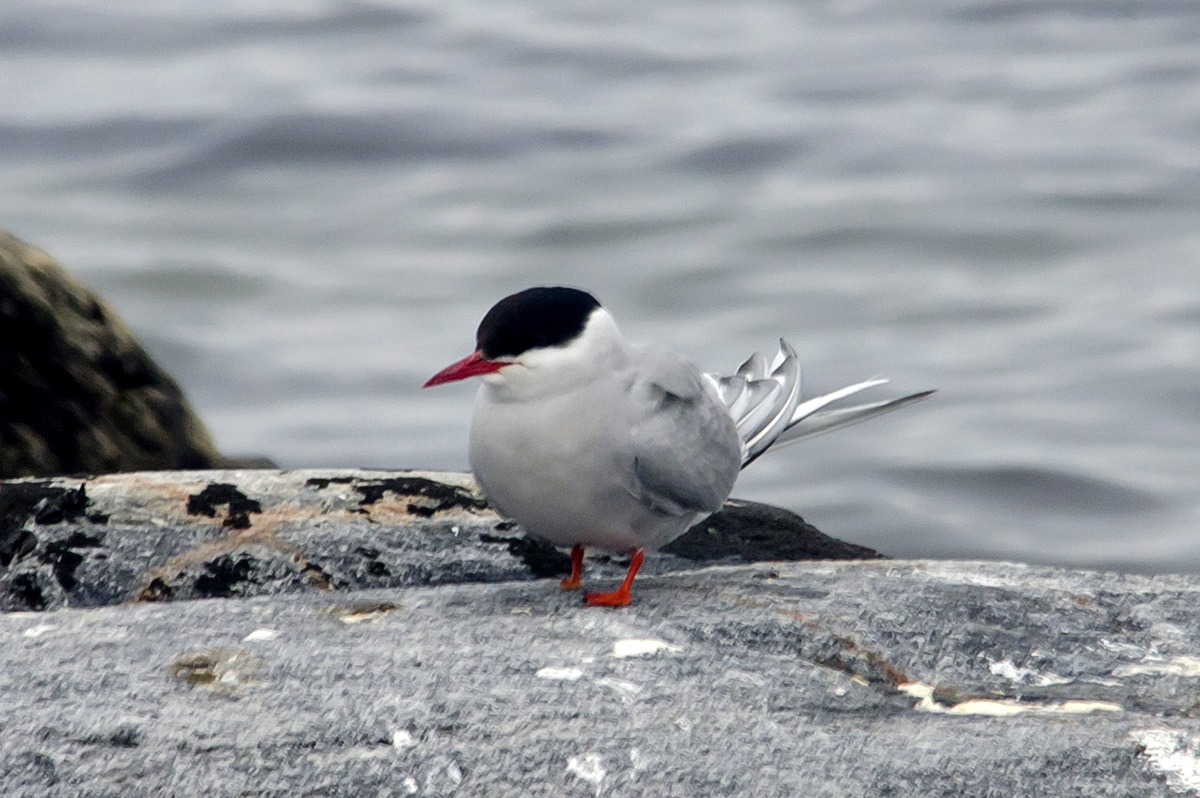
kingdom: Animalia
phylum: Chordata
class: Aves
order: Charadriiformes
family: Laridae
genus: Sterna
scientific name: Sterna paradisaea
